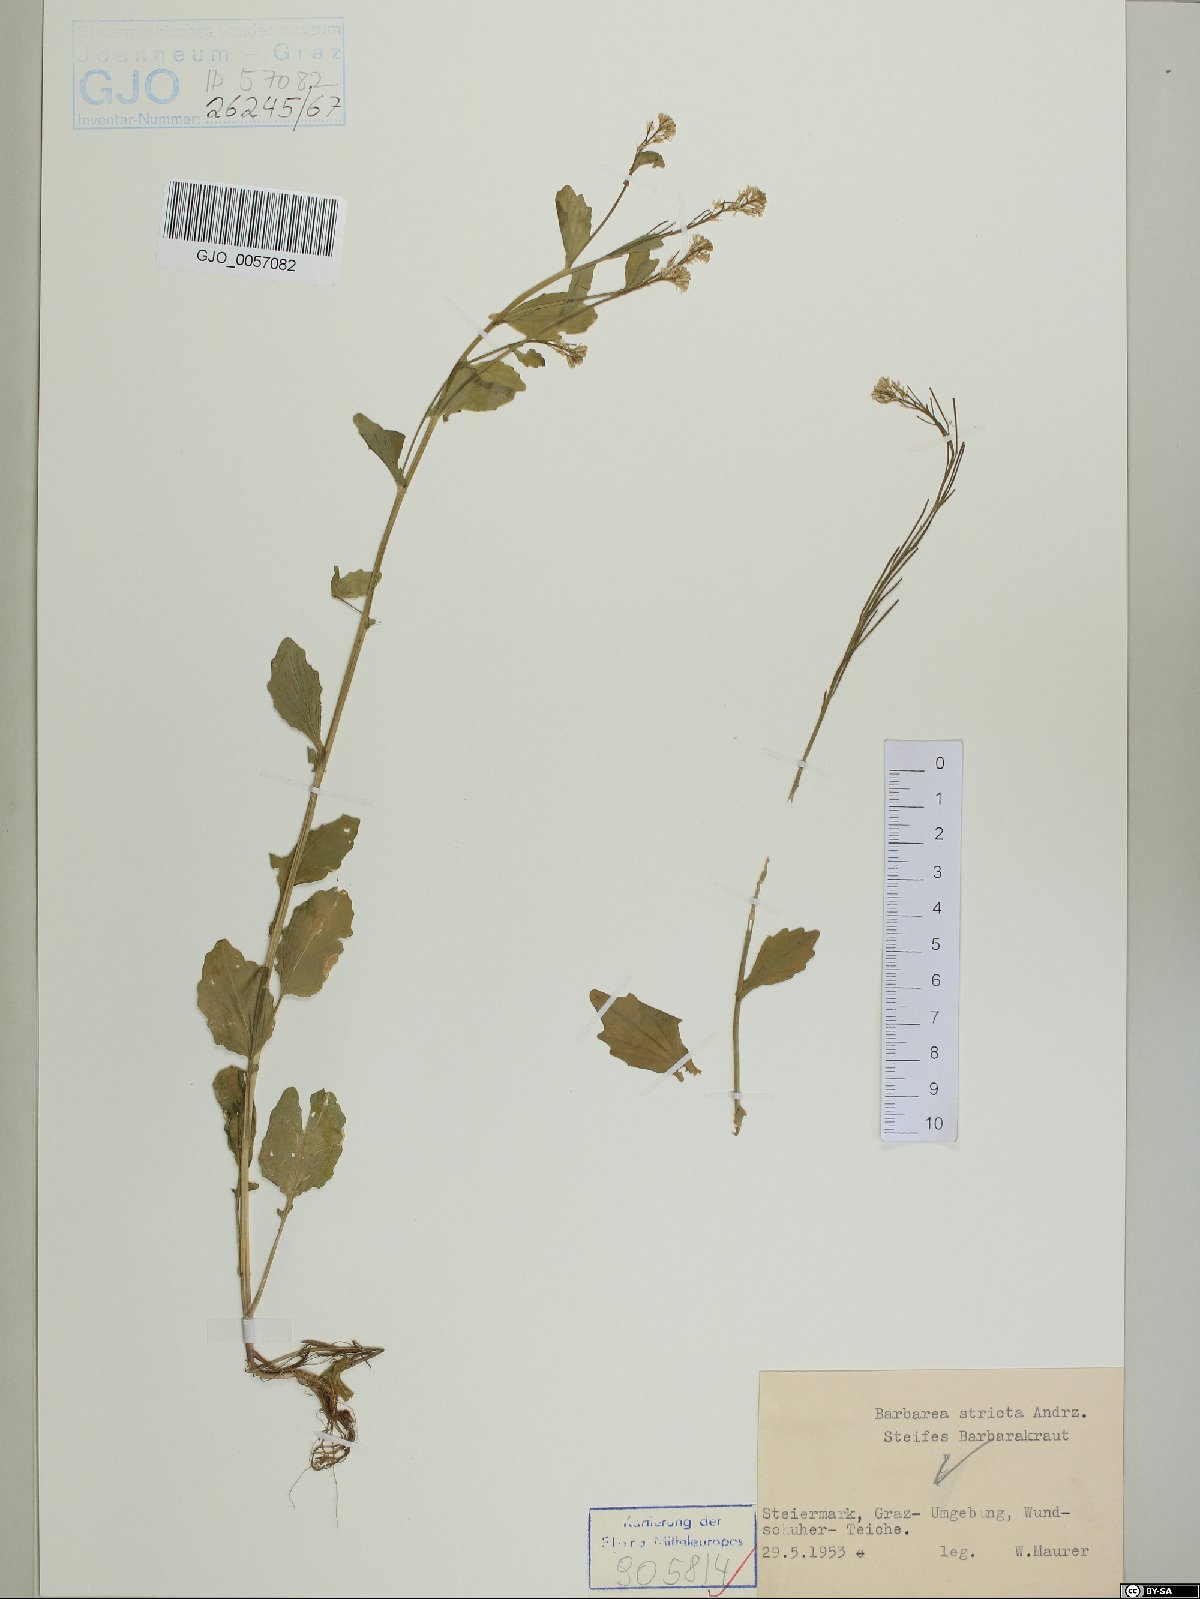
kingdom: Plantae
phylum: Tracheophyta
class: Magnoliopsida
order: Brassicales
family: Brassicaceae
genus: Barbarea
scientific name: Barbarea stricta
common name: Small-flowered winter-cress
